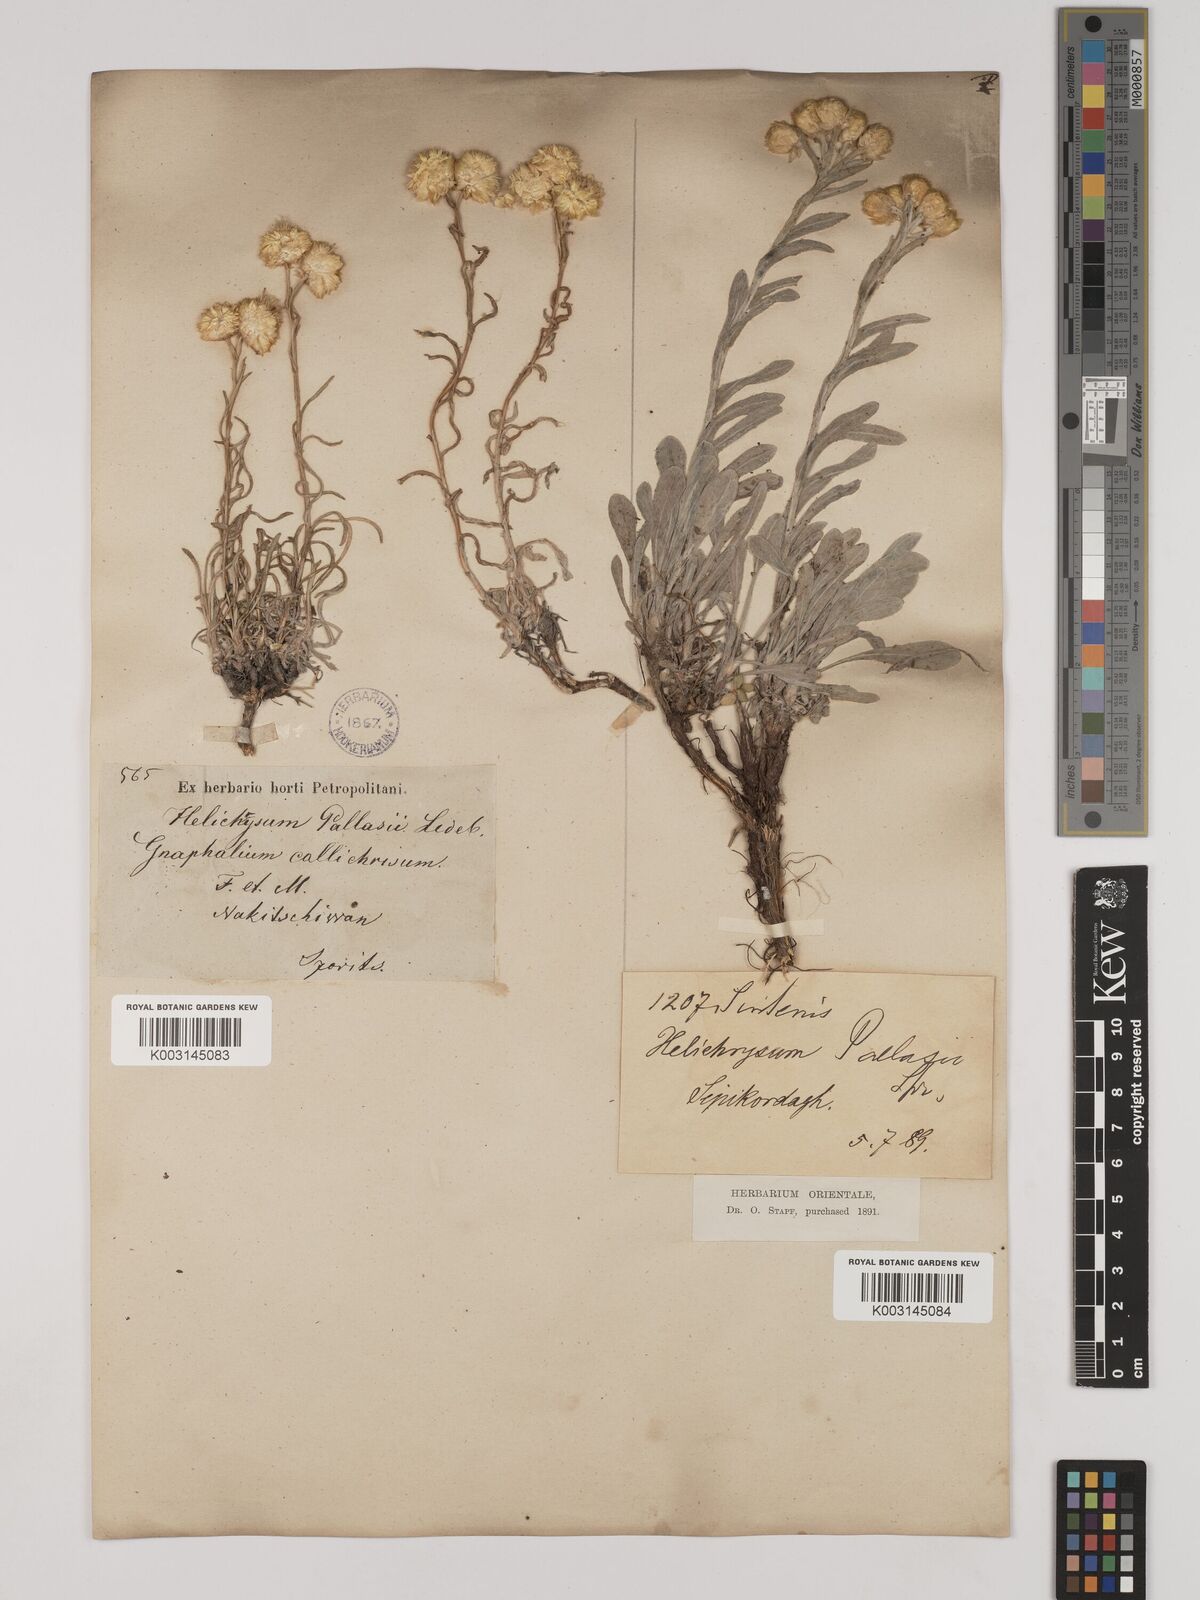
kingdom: Plantae
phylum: Tracheophyta
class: Magnoliopsida
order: Asterales
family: Asteraceae
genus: Helichrysum
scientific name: Helichrysum pallasii
